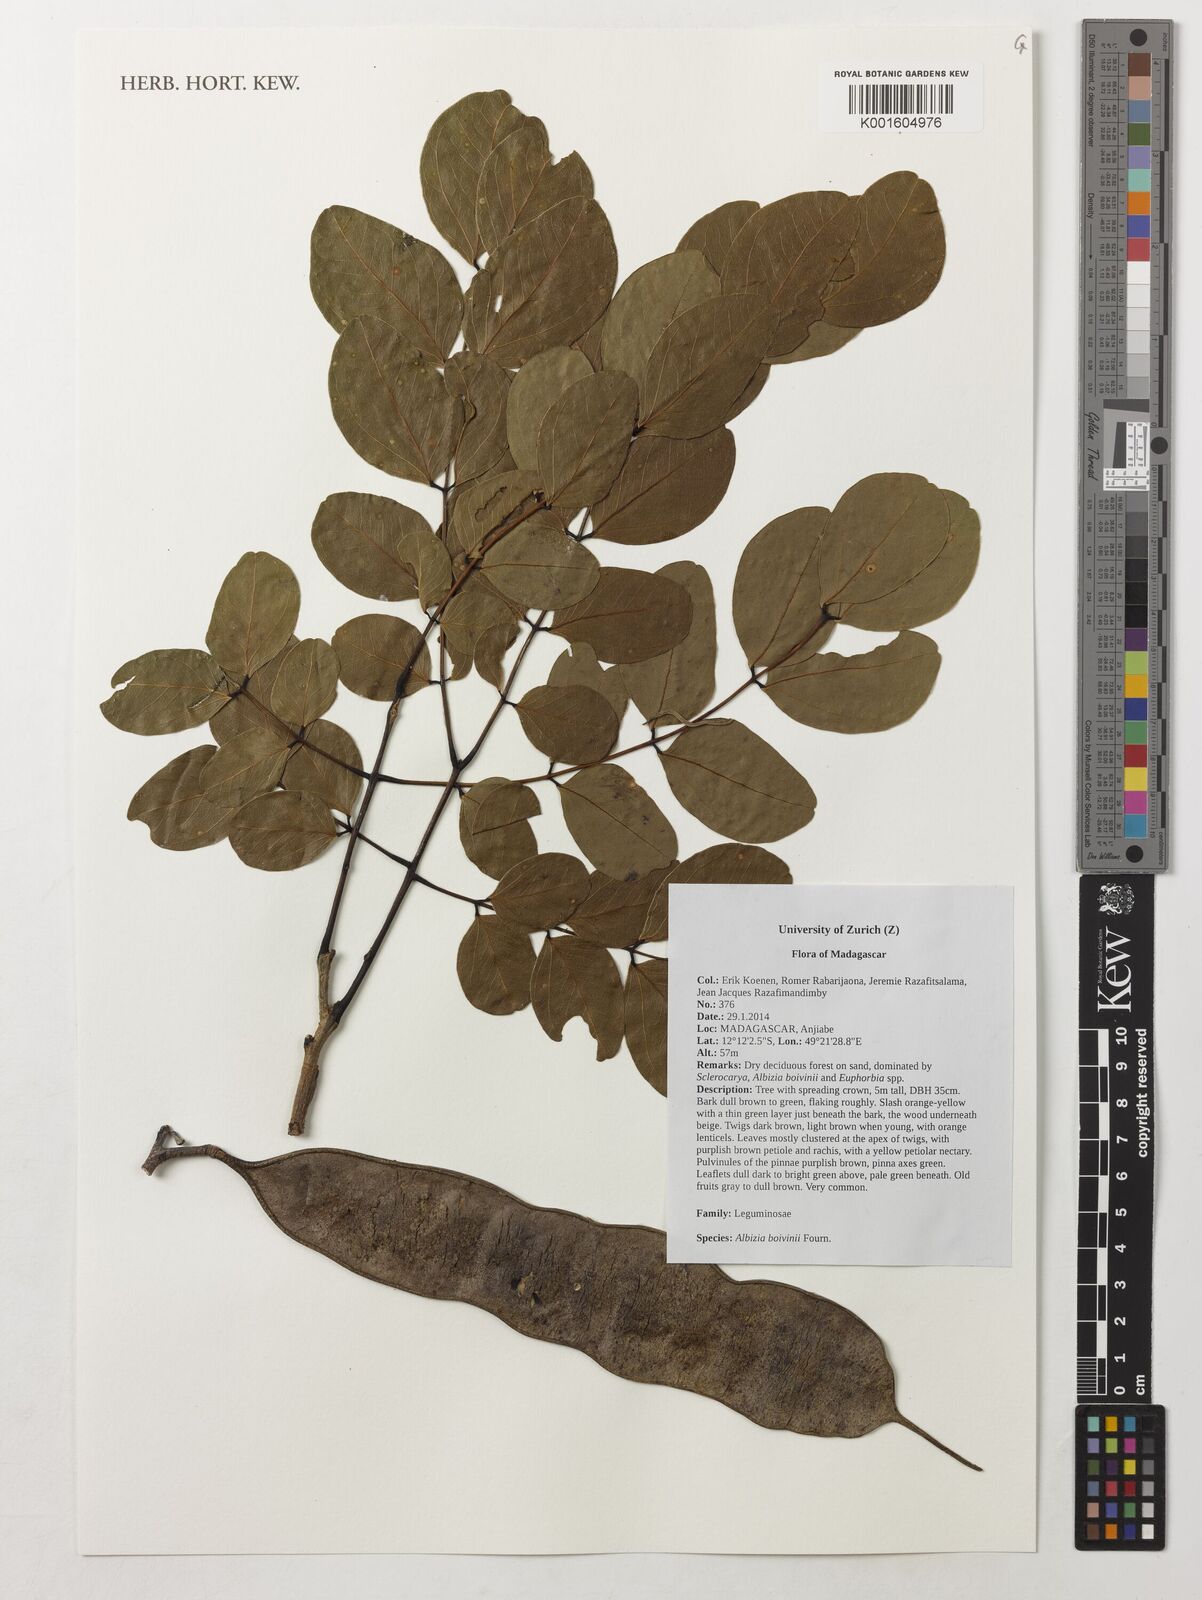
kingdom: Plantae
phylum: Tracheophyta
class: Magnoliopsida
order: Fabales
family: Fabaceae
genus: Albizia
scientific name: Albizia boivinii
